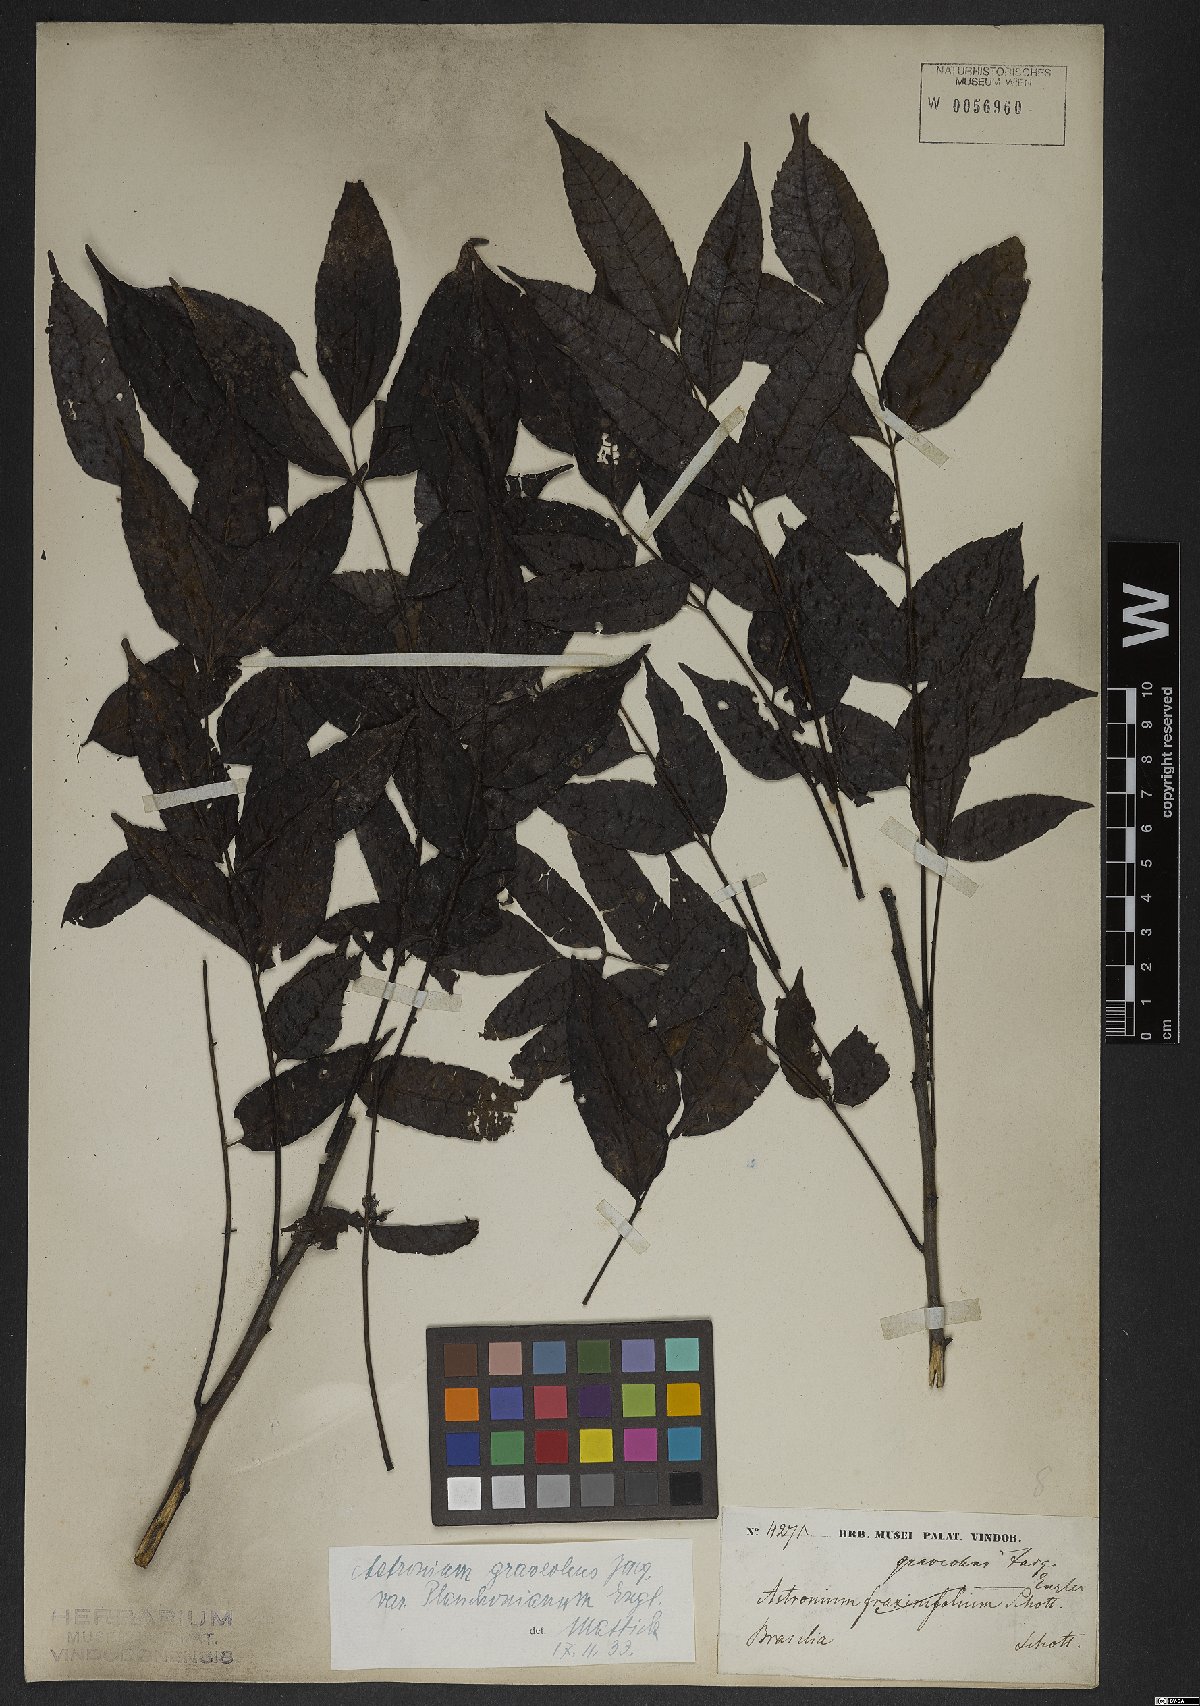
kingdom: Plantae
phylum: Tracheophyta
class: Magnoliopsida
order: Sapindales
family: Anacardiaceae
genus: Astronium
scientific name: Astronium graveolens
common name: Glassywood
